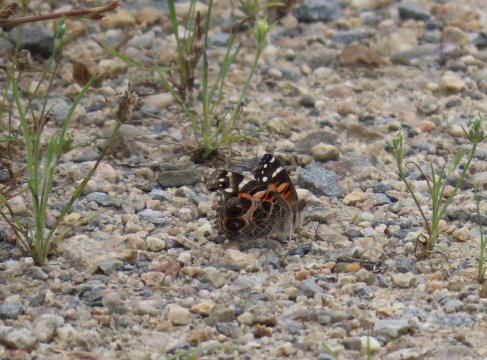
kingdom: Animalia
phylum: Arthropoda
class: Insecta
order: Lepidoptera
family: Nymphalidae
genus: Vanessa
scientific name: Vanessa virginiensis
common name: American Lady
